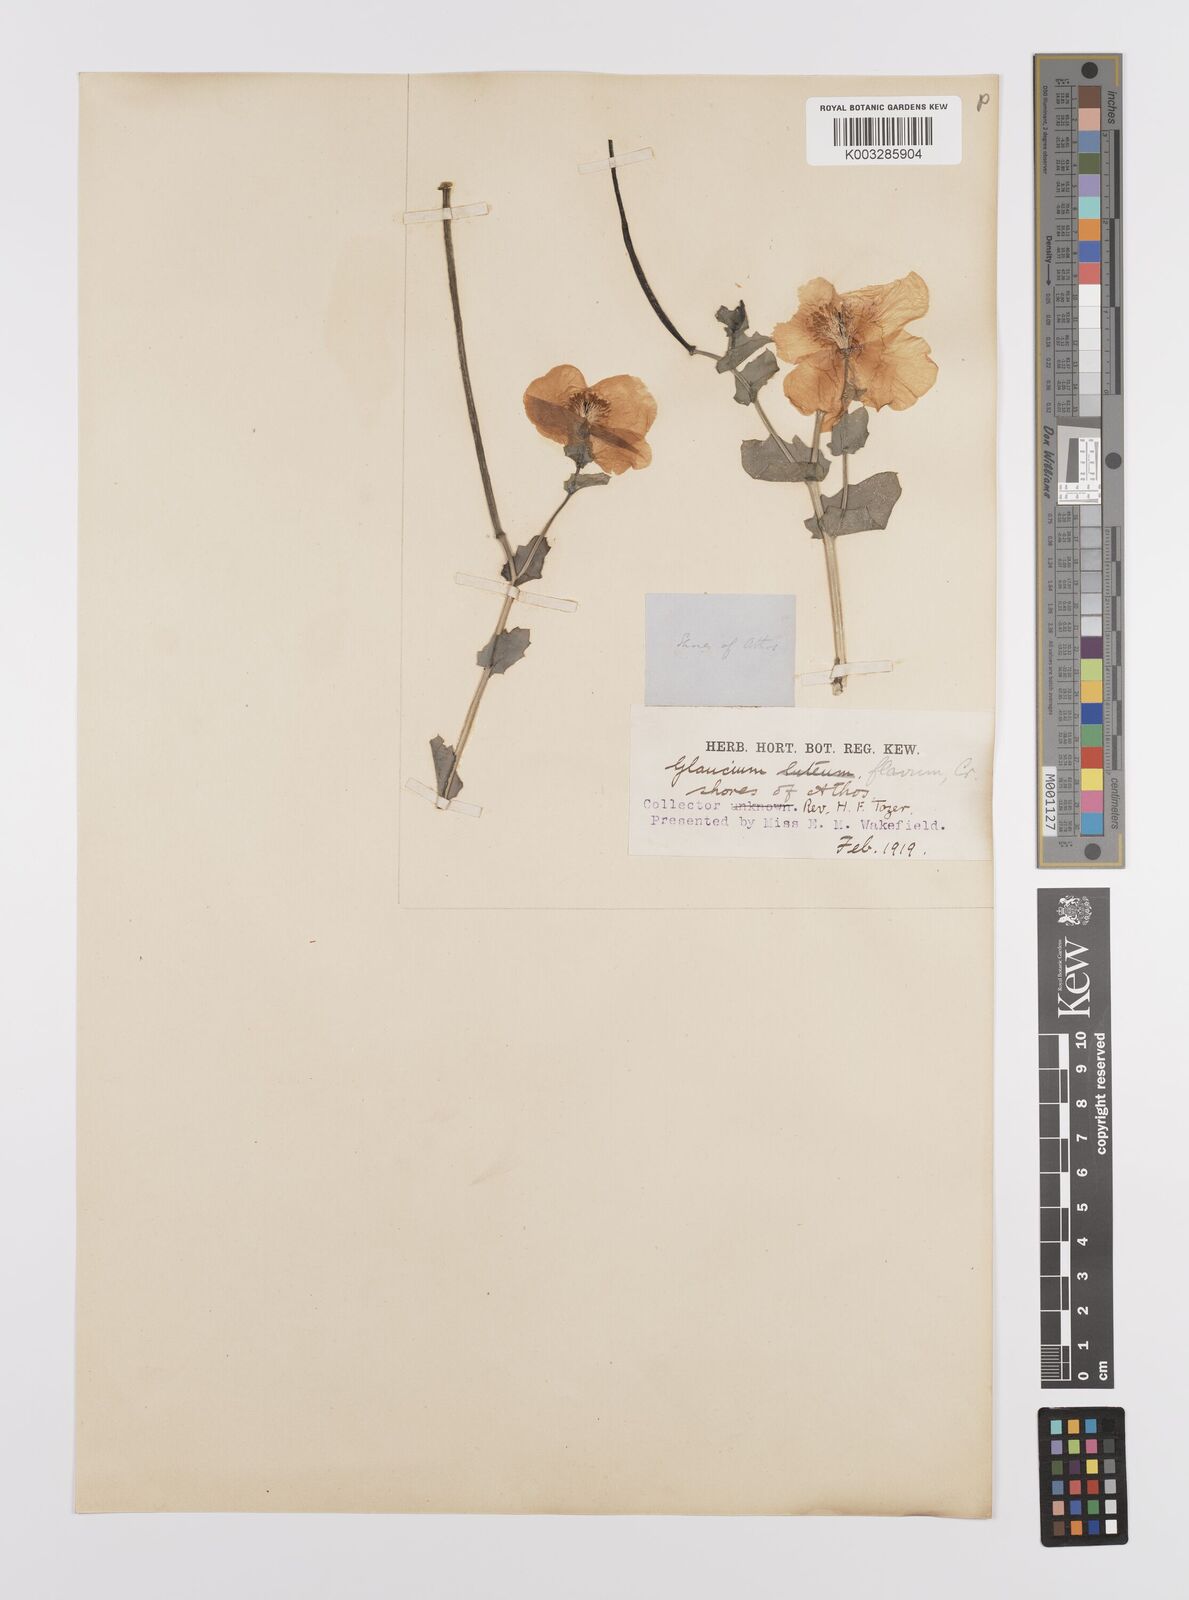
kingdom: Plantae
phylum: Tracheophyta
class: Magnoliopsida
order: Ranunculales
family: Papaveraceae
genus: Glaucium
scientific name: Glaucium flavum
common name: Yellow horned-poppy
